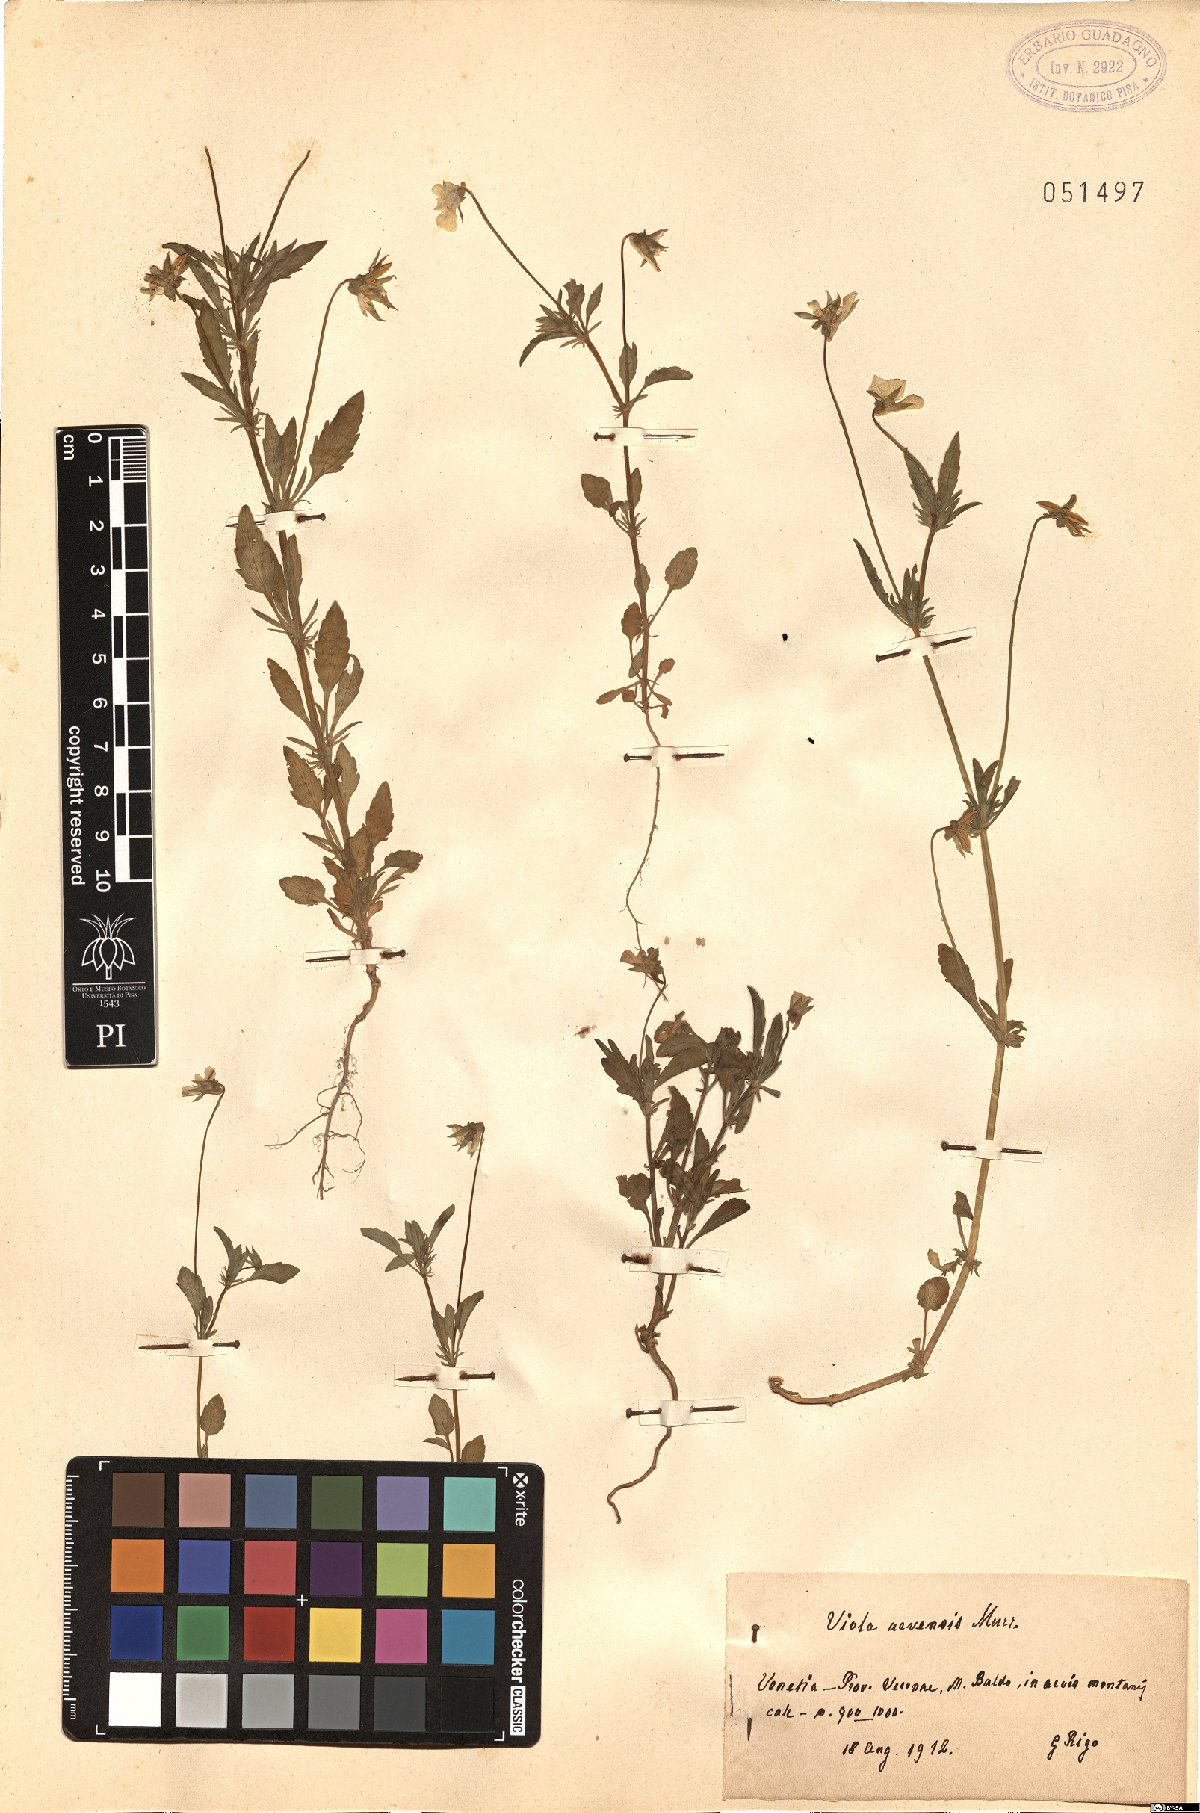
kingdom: Plantae
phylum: Tracheophyta
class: Magnoliopsida
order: Malpighiales
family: Violaceae
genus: Viola
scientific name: Viola arvensis
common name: Field pansy
